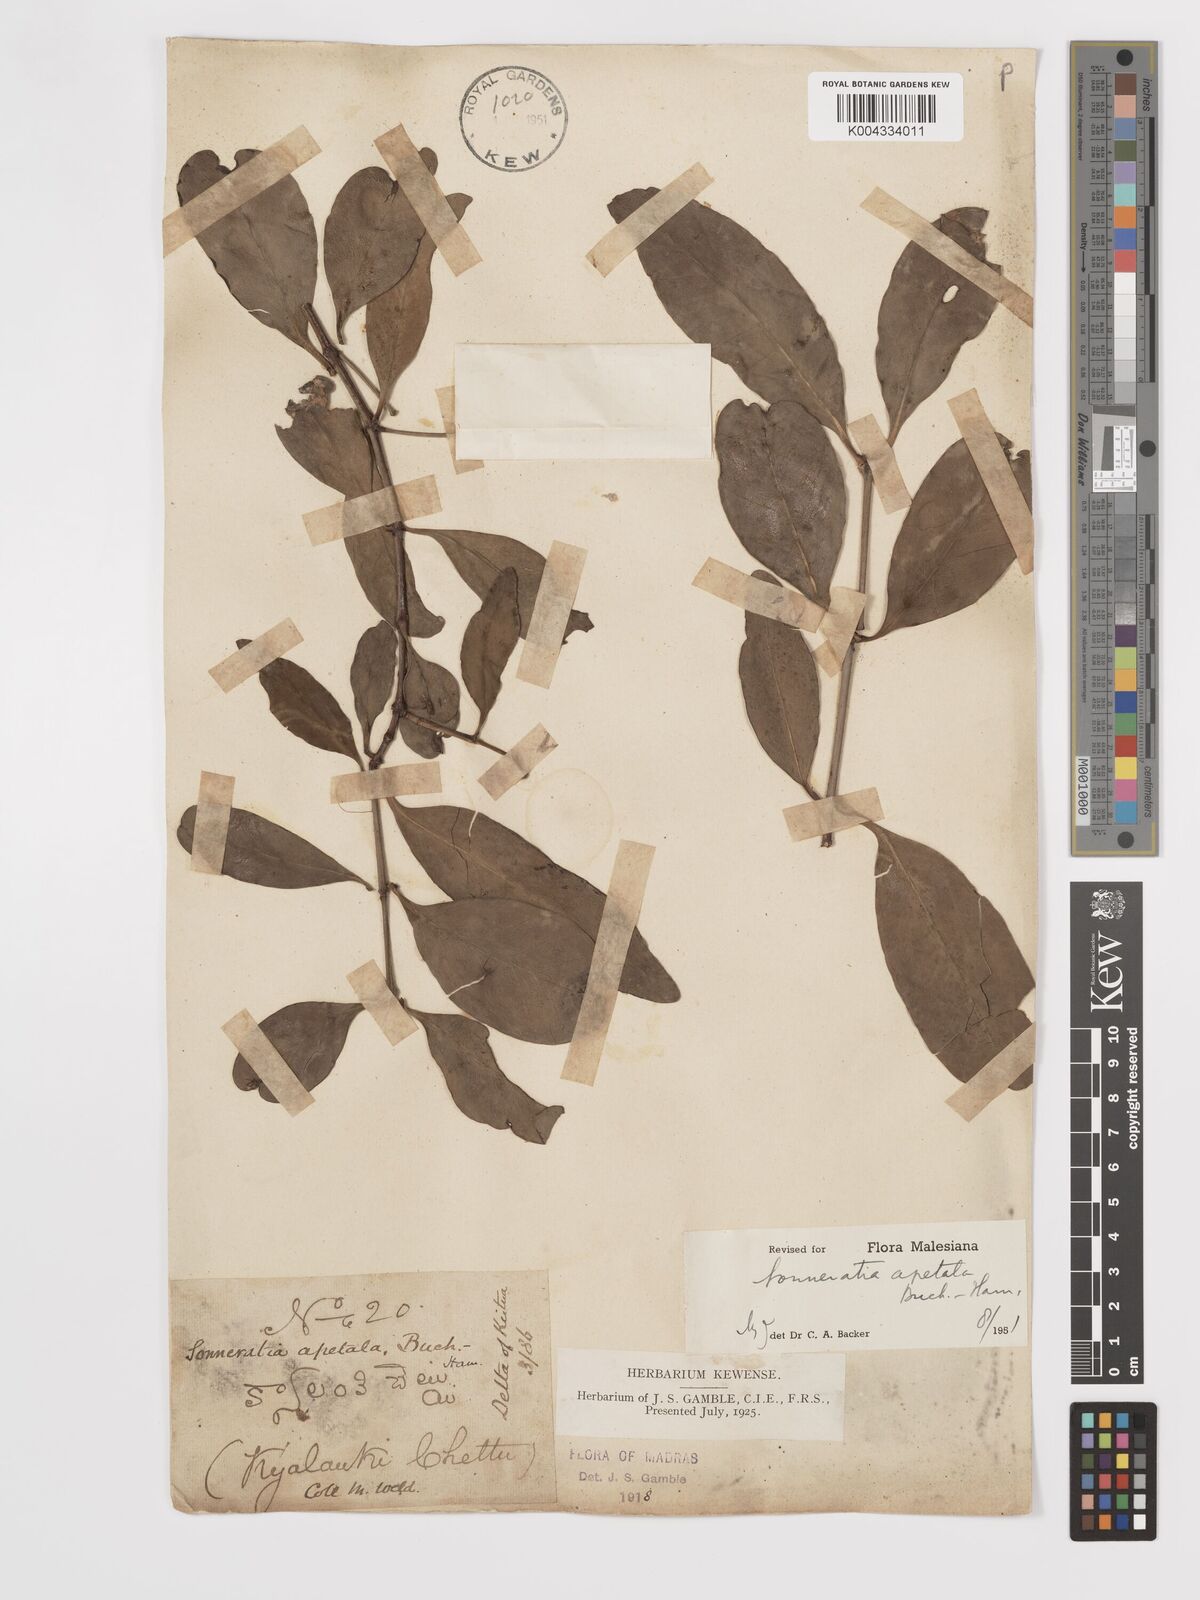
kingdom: Plantae
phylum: Tracheophyta
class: Magnoliopsida
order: Myrtales
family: Lythraceae
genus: Sonneratia
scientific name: Sonneratia apetala
